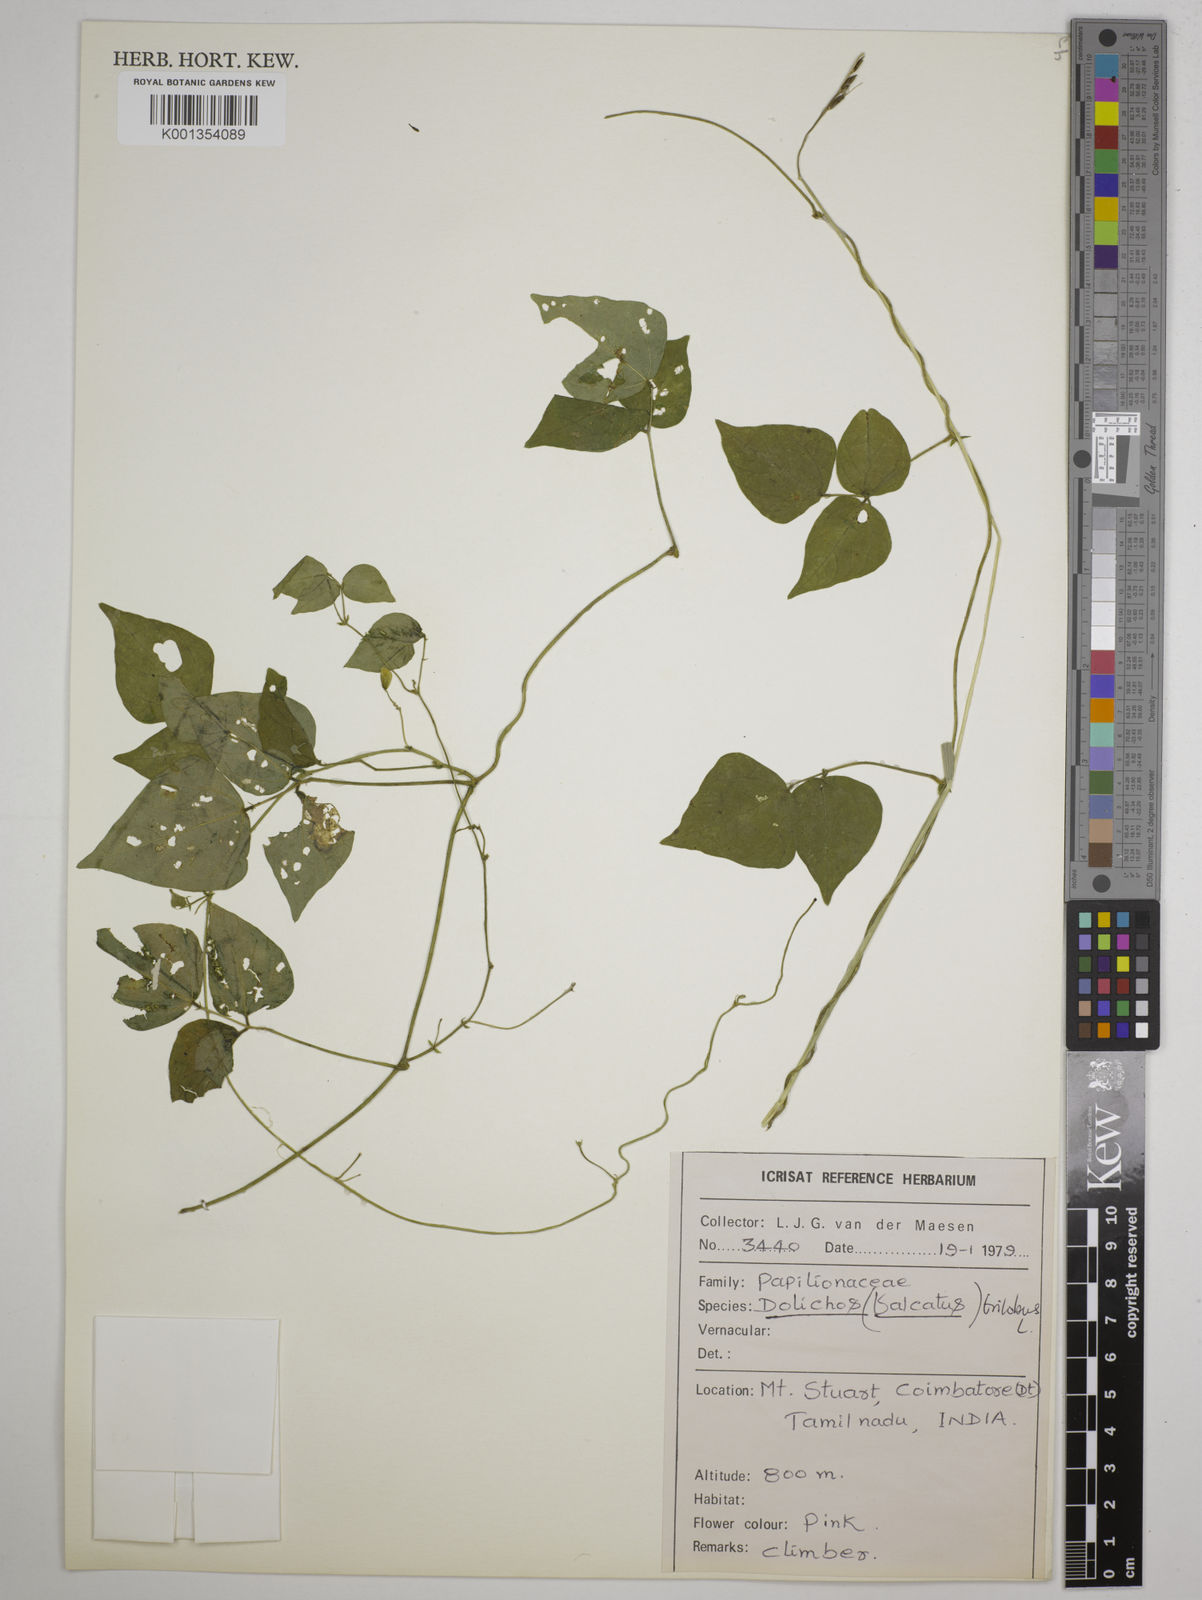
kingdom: Plantae
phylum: Tracheophyta
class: Magnoliopsida
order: Fabales
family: Fabaceae
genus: Dolichos
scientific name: Dolichos
